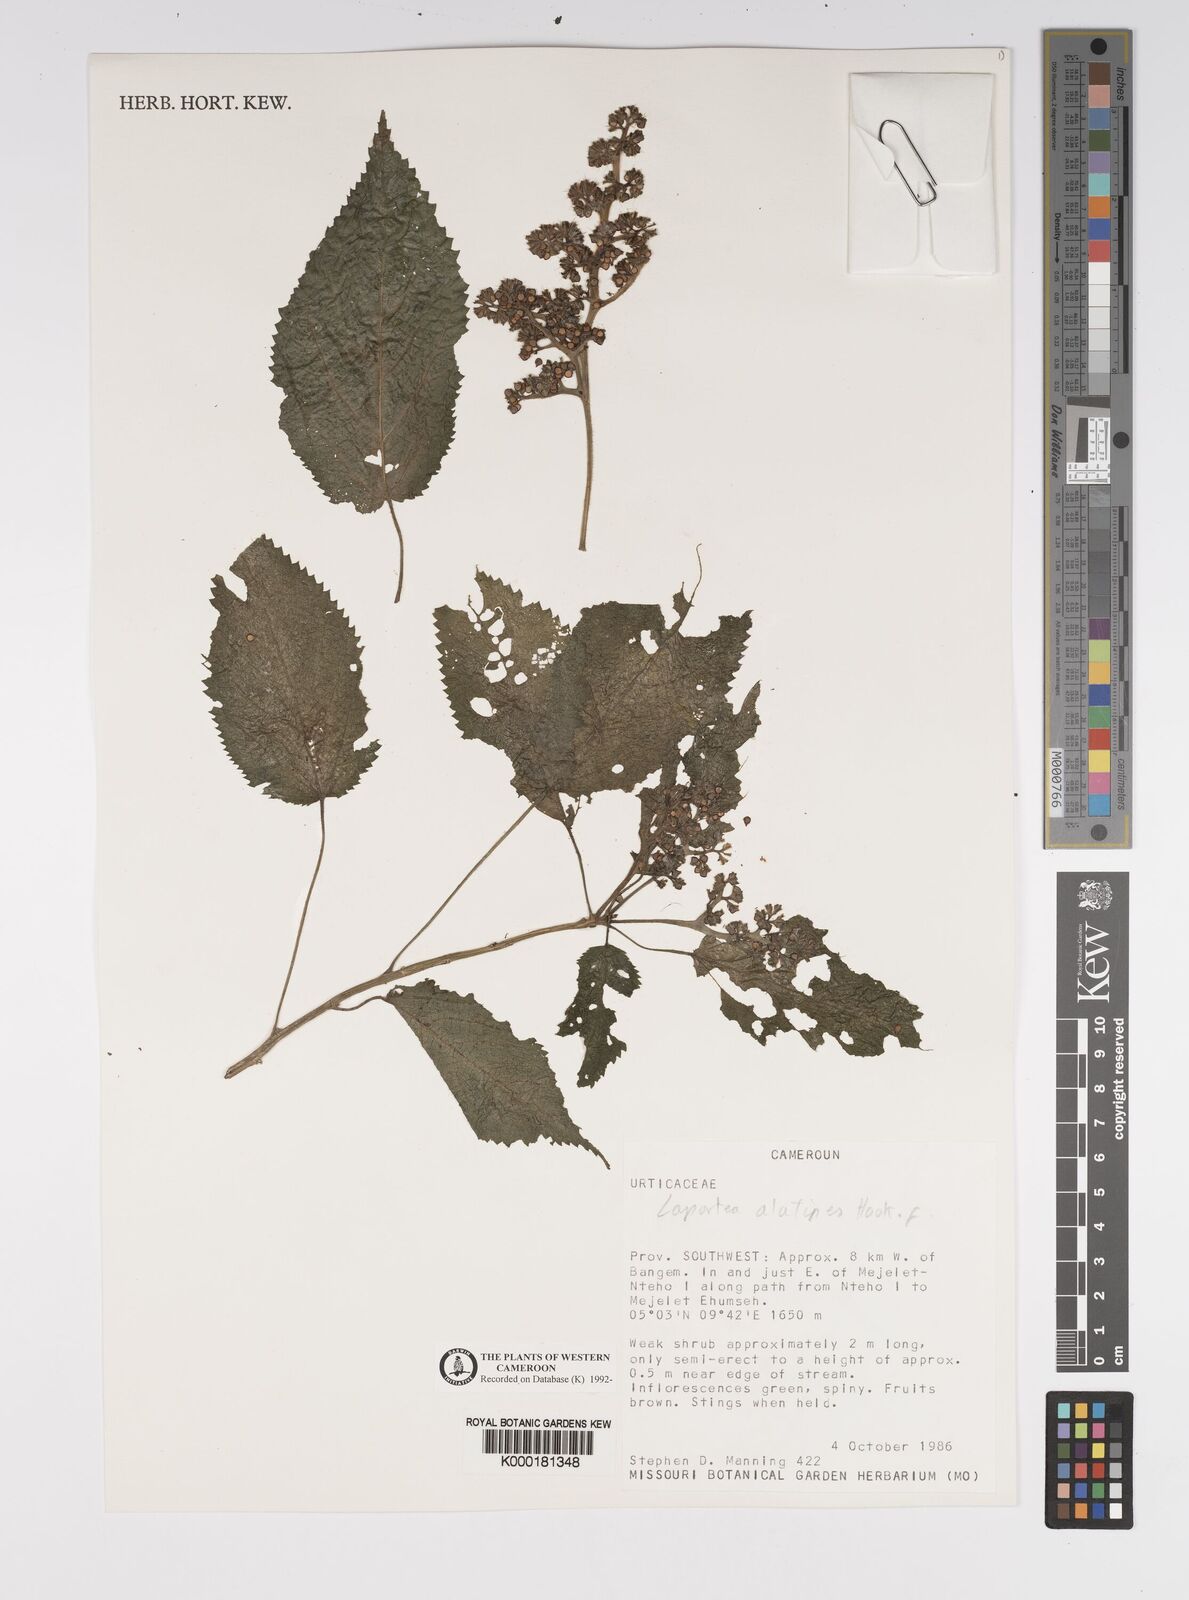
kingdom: Plantae
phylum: Tracheophyta
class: Magnoliopsida
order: Rosales
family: Urticaceae
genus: Laportea
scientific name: Laportea alatipes
